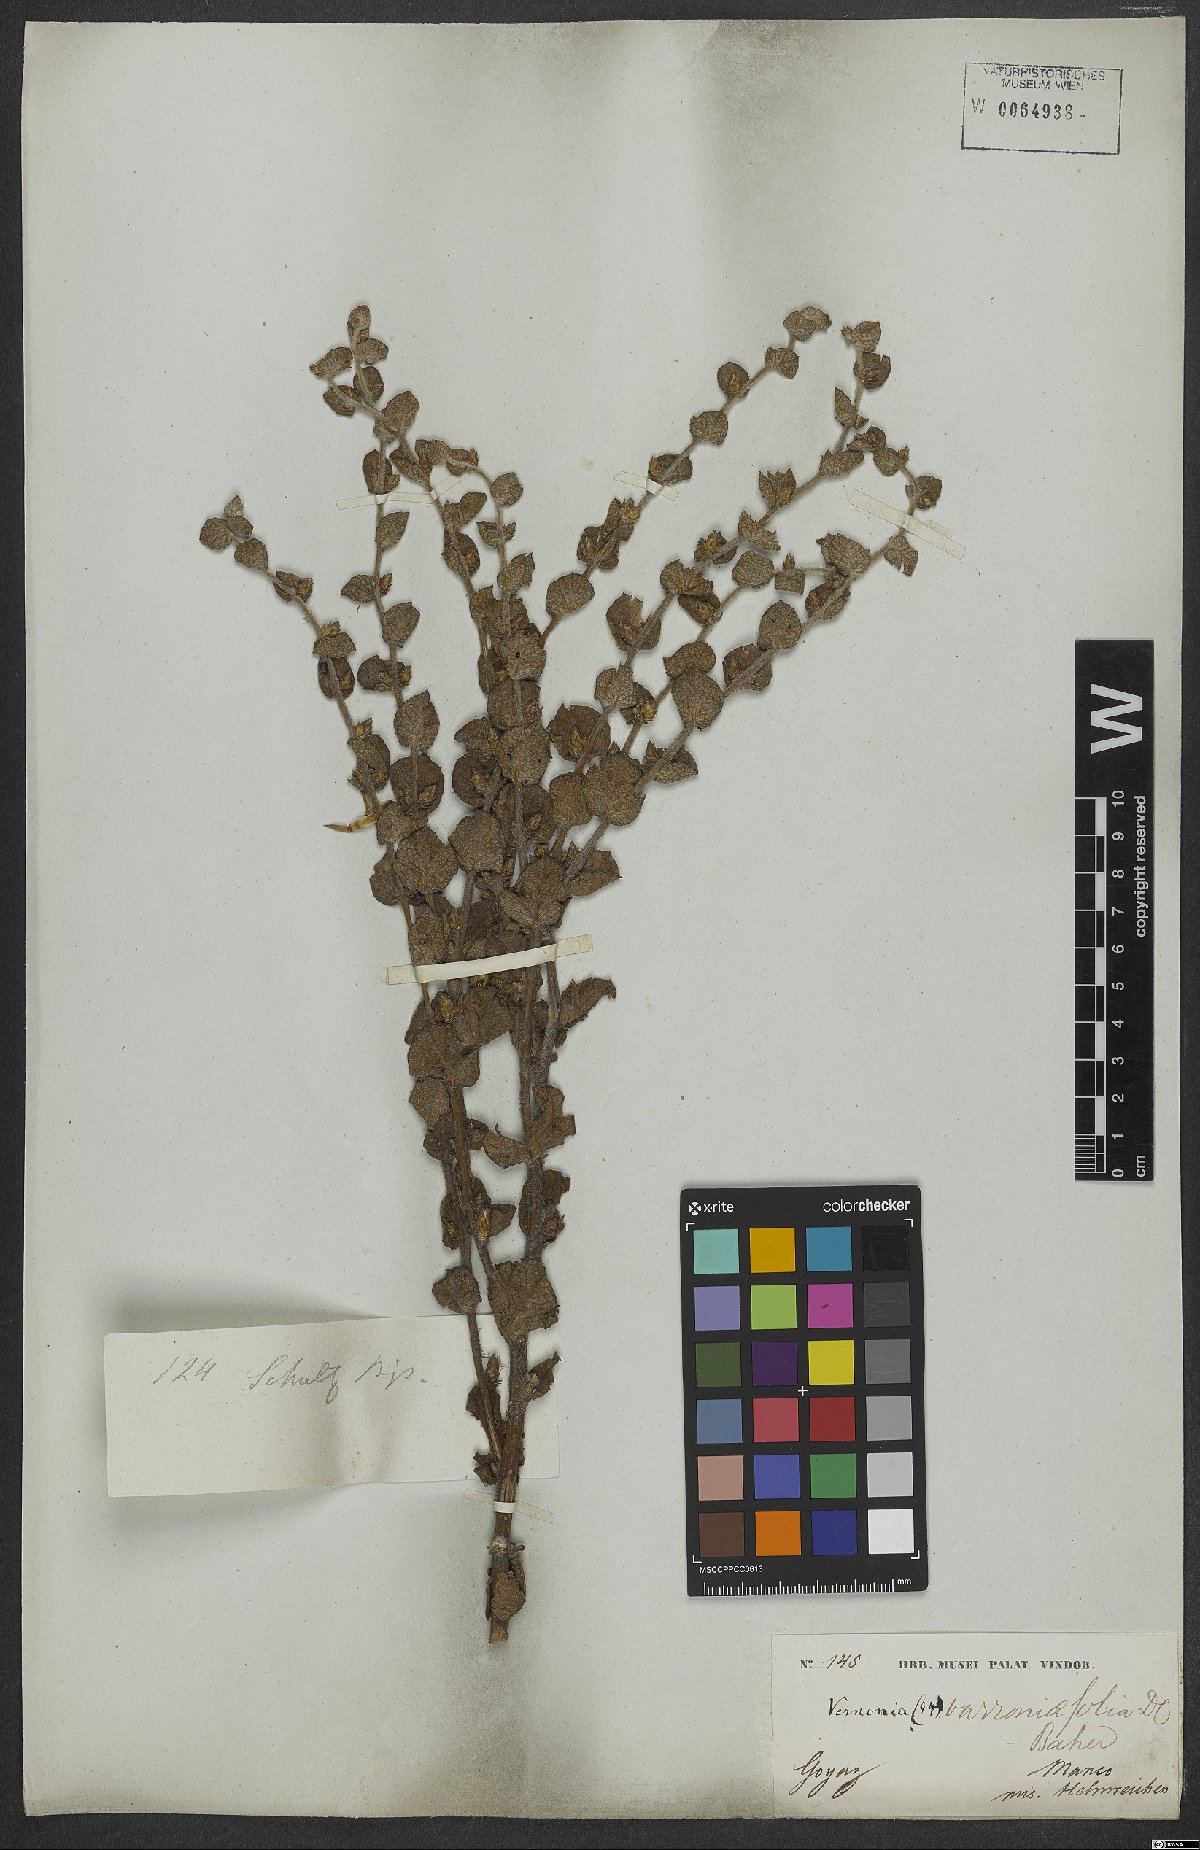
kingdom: Plantae
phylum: Tracheophyta
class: Magnoliopsida
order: Asterales
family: Asteraceae
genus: Lessingianthus
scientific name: Lessingianthus varroniifolius
